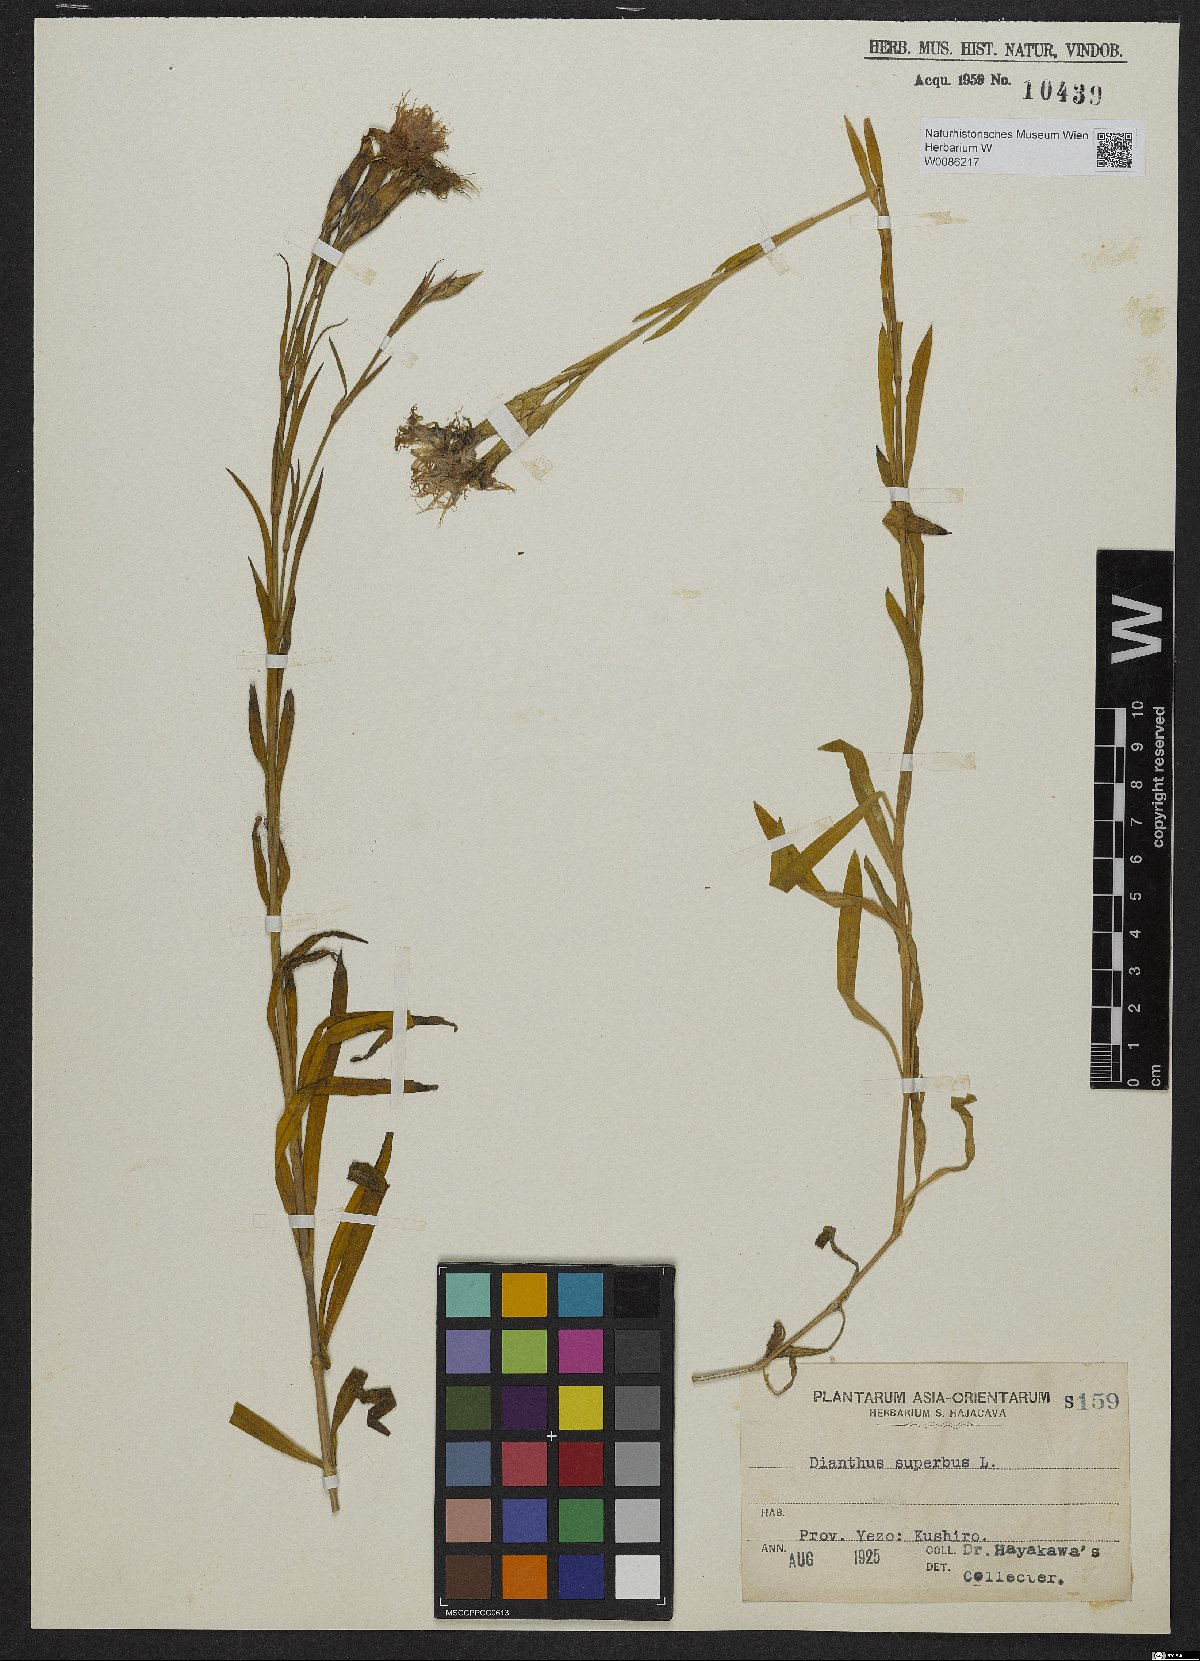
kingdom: Plantae
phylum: Tracheophyta
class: Magnoliopsida
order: Caryophyllales
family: Caryophyllaceae
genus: Dianthus
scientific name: Dianthus superbus
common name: Fringed pink
